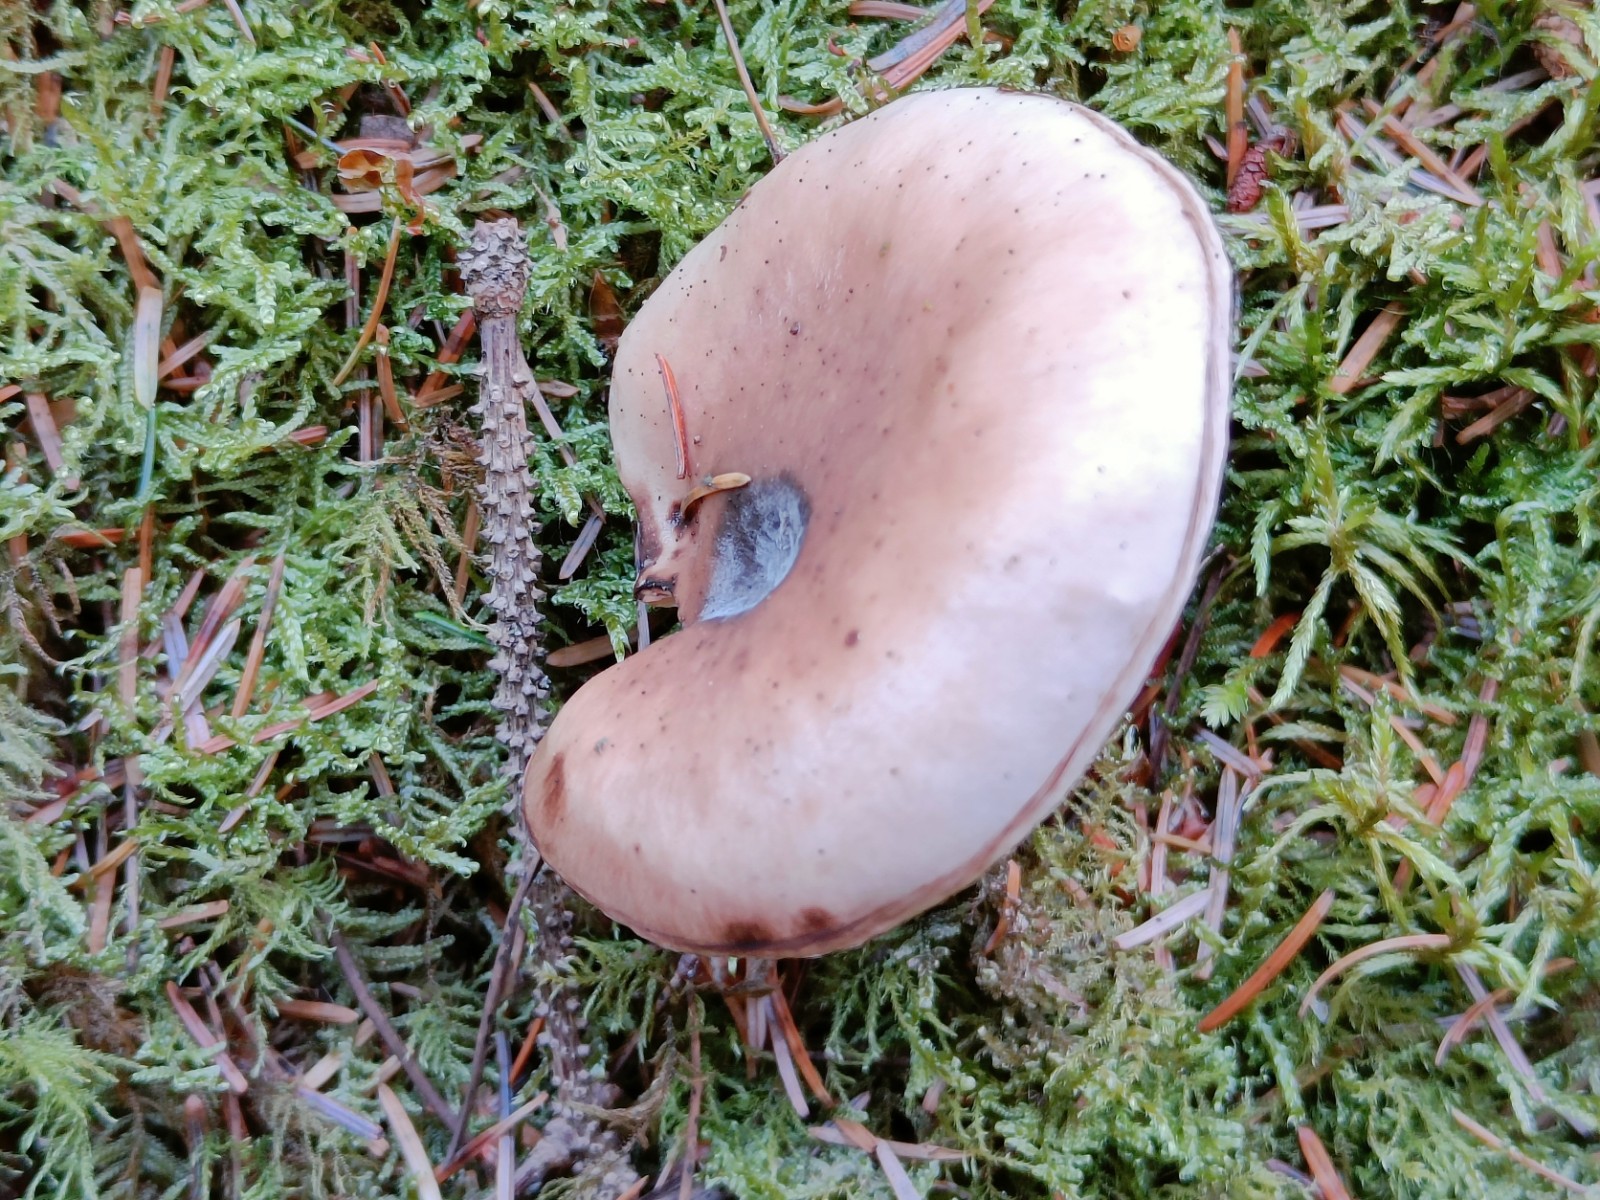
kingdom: Fungi
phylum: Basidiomycota
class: Agaricomycetes
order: Boletales
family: Gomphidiaceae
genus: Gomphidius
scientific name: Gomphidius glutinosus
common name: grå slimslør
